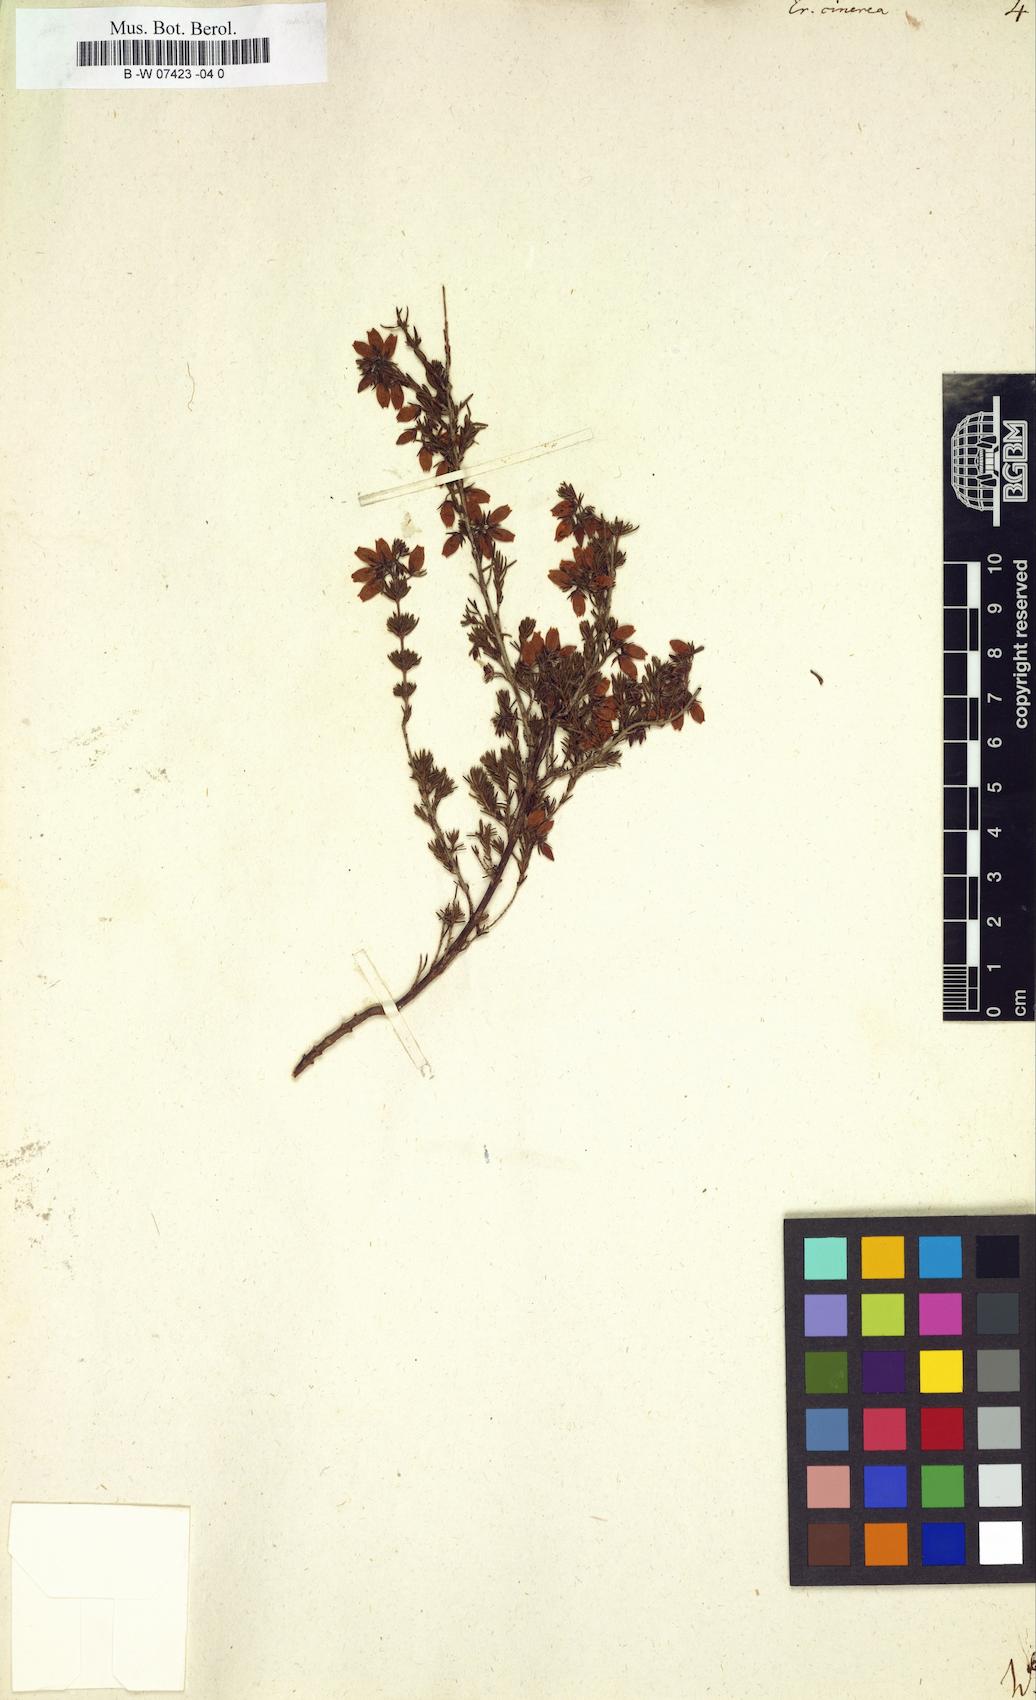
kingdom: Plantae
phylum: Tracheophyta
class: Magnoliopsida
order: Ericales
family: Ericaceae
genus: Erica
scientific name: Erica cinerea
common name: Bell heather
